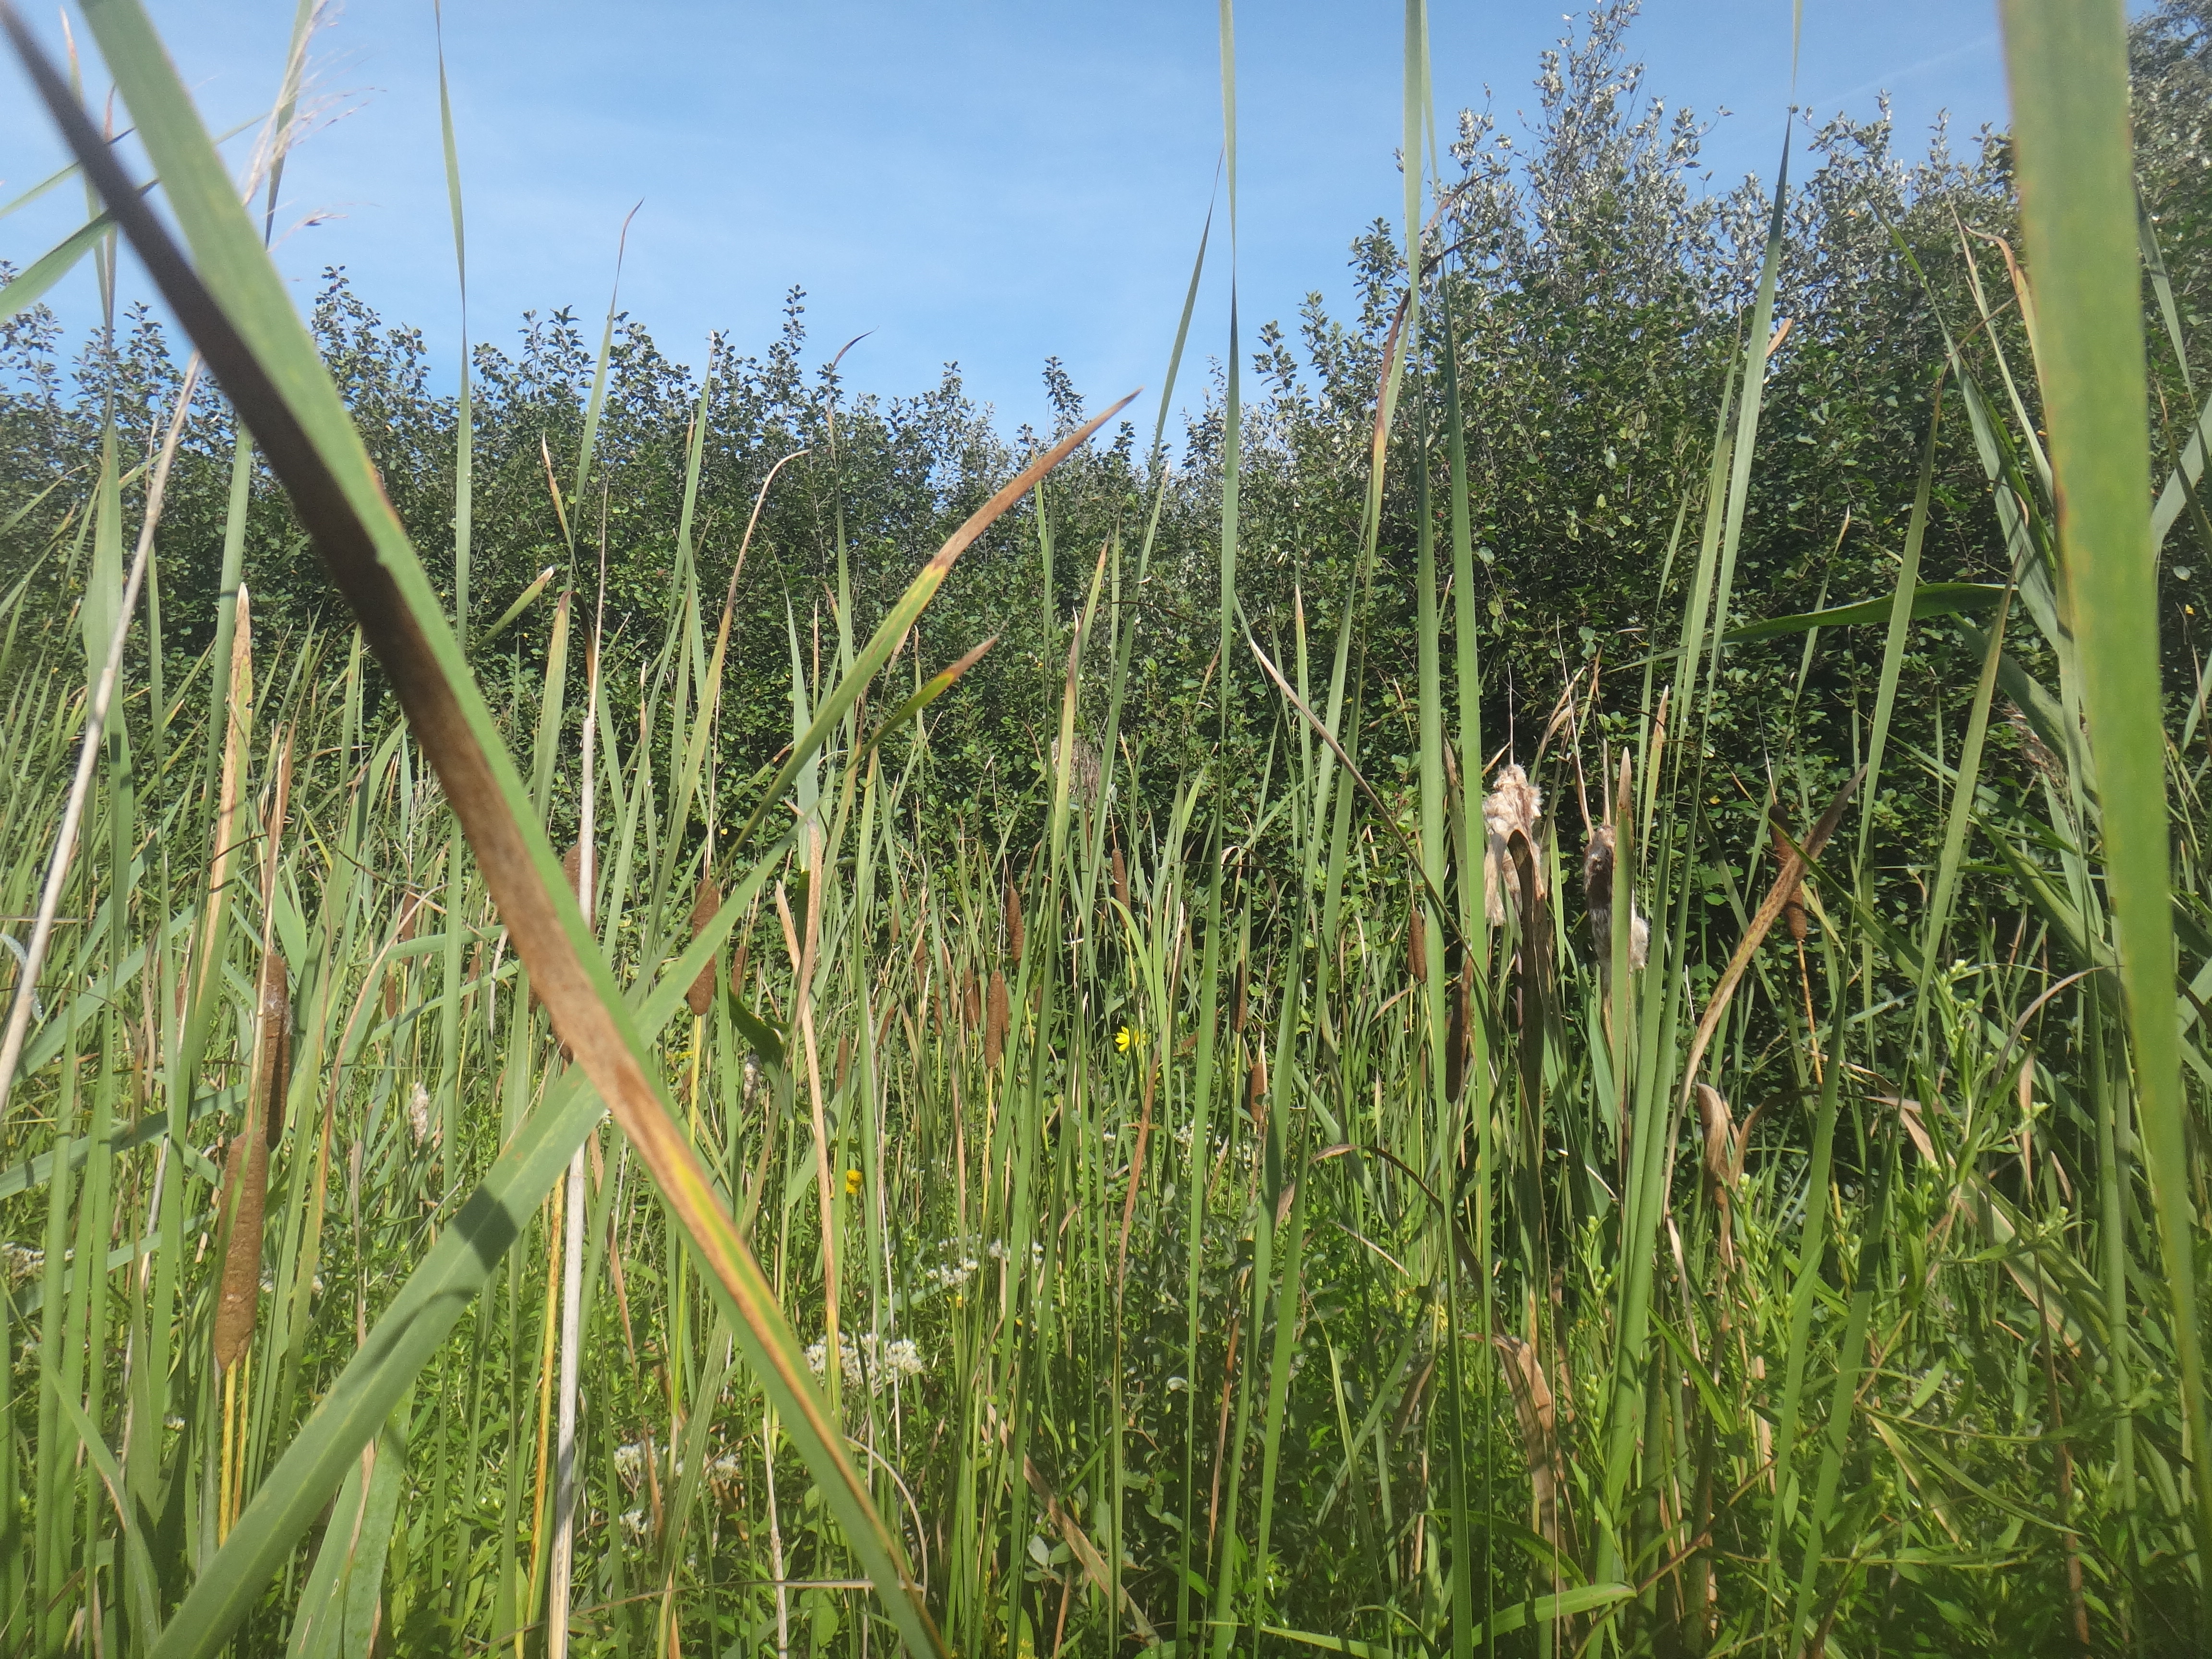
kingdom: Plantae
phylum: Tracheophyta
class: Magnoliopsida
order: Asterales
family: Asteraceae
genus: Eupatorium
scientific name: Eupatorium perfoliatum
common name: Boneset
